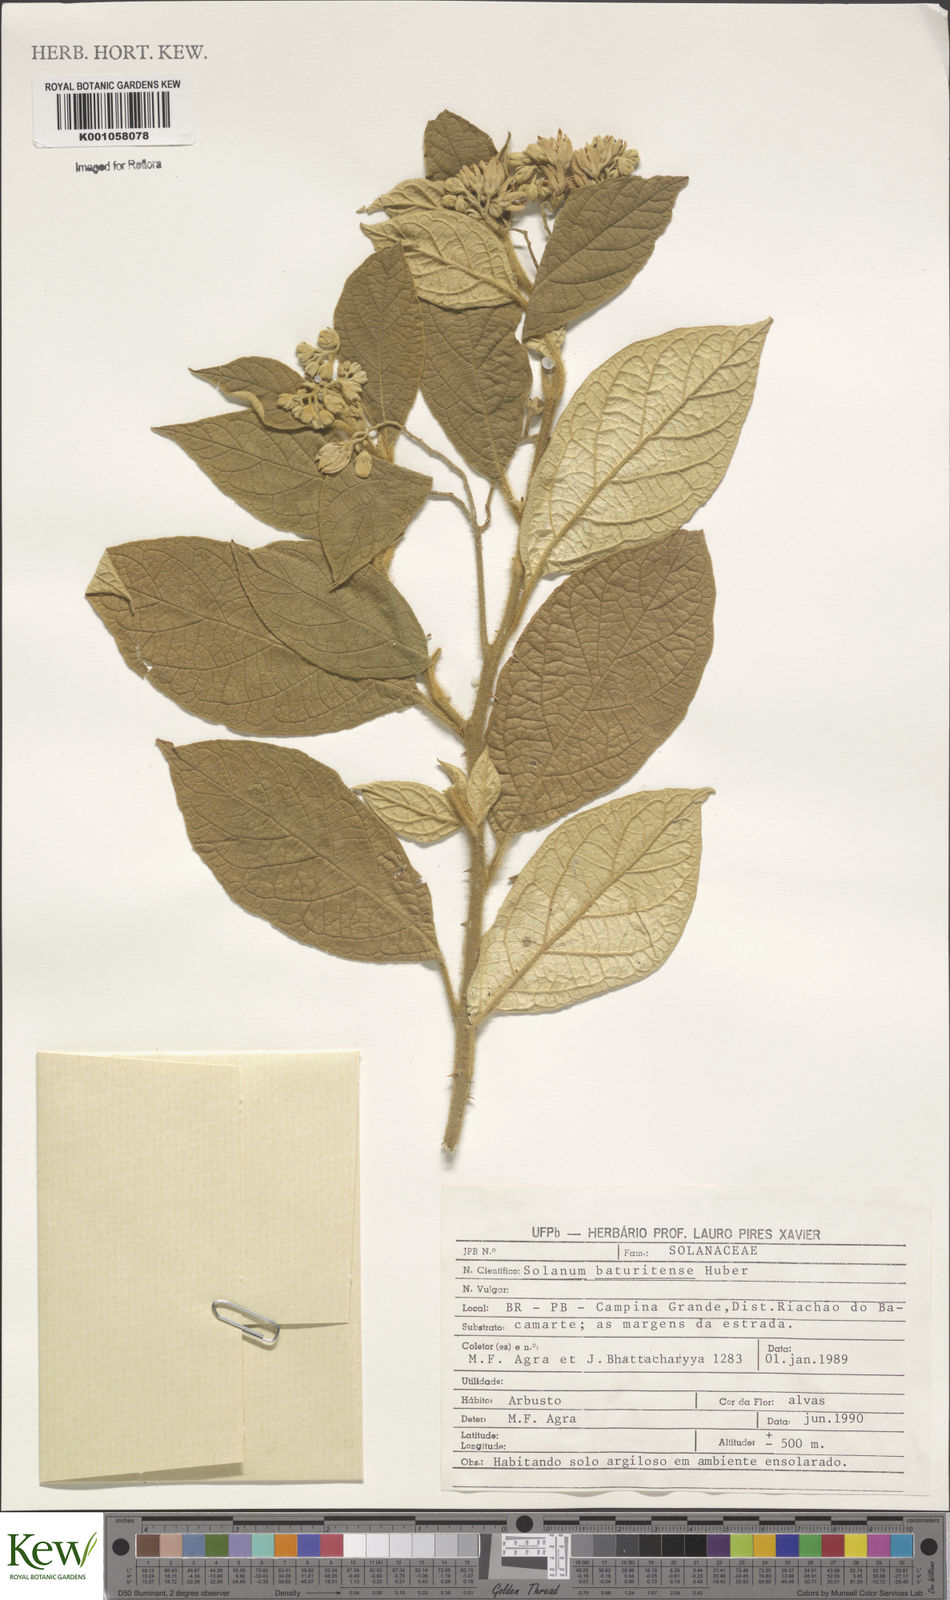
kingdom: Plantae
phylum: Tracheophyta
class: Magnoliopsida
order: Solanales
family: Solanaceae
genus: Solanum
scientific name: Solanum rhytidoandrum
